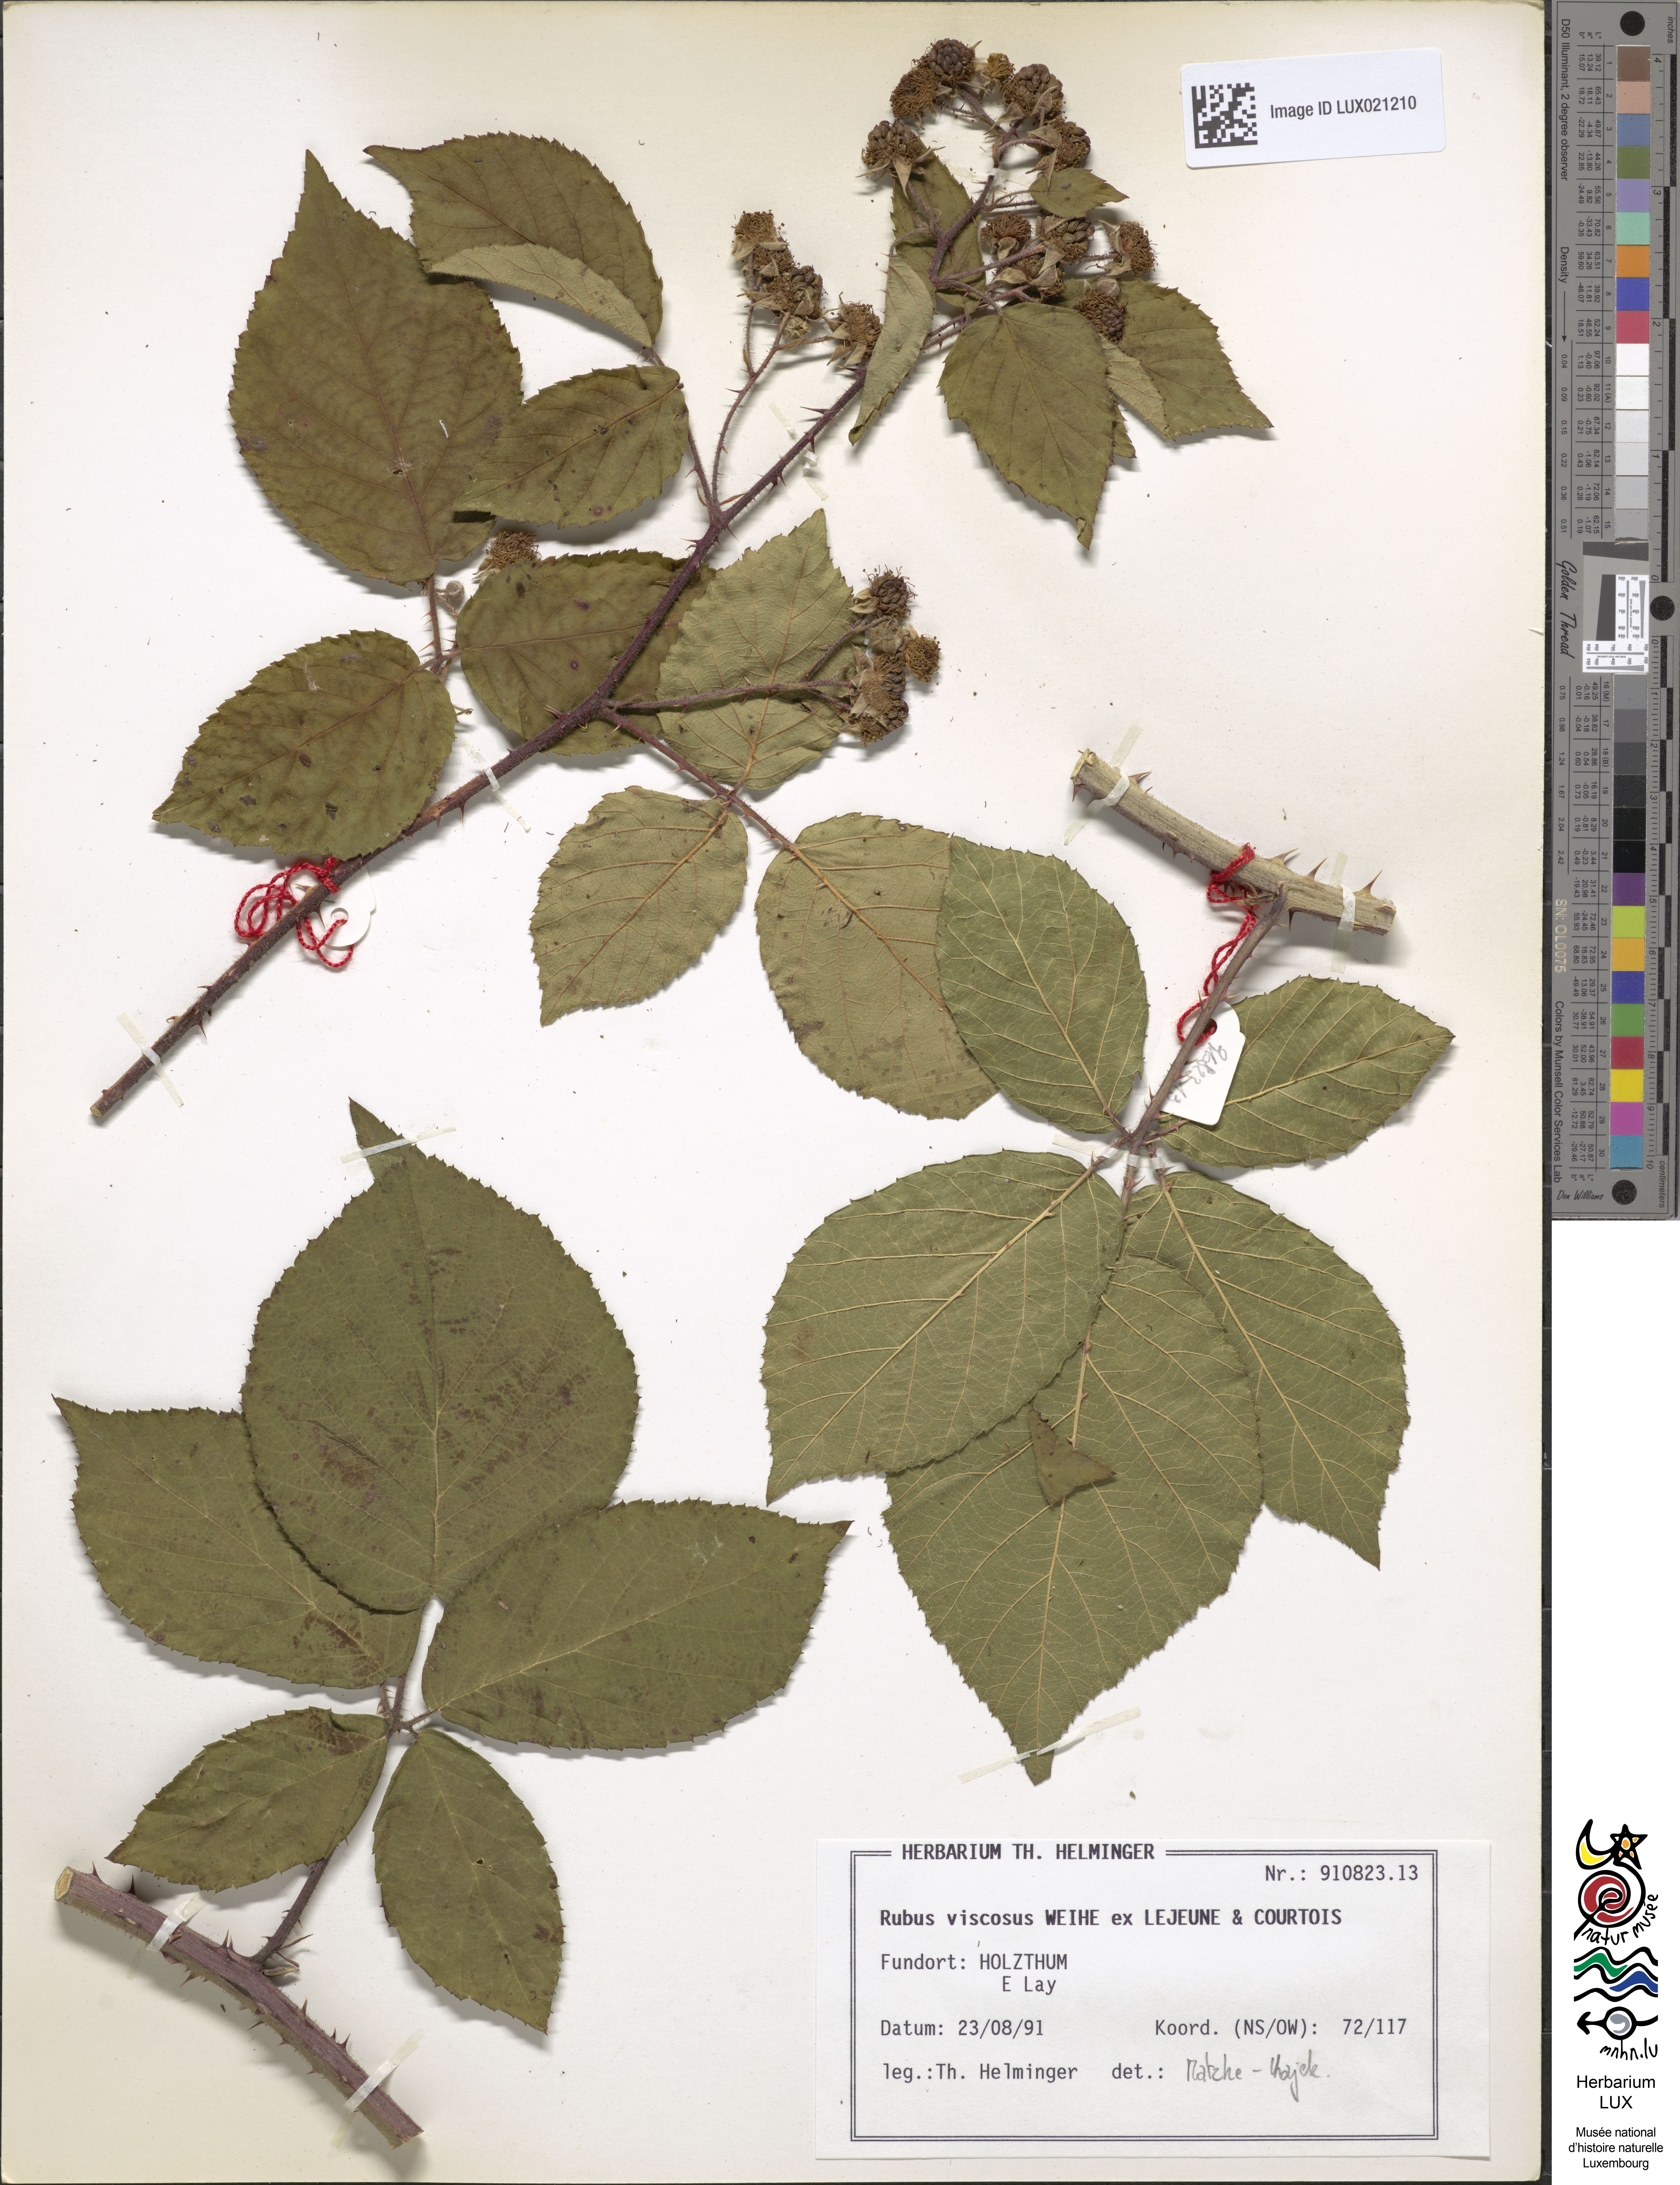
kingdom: Plantae
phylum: Tracheophyta
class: Magnoliopsida
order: Rosales
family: Rosaceae
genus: Rubus
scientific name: Rubus viscosus
